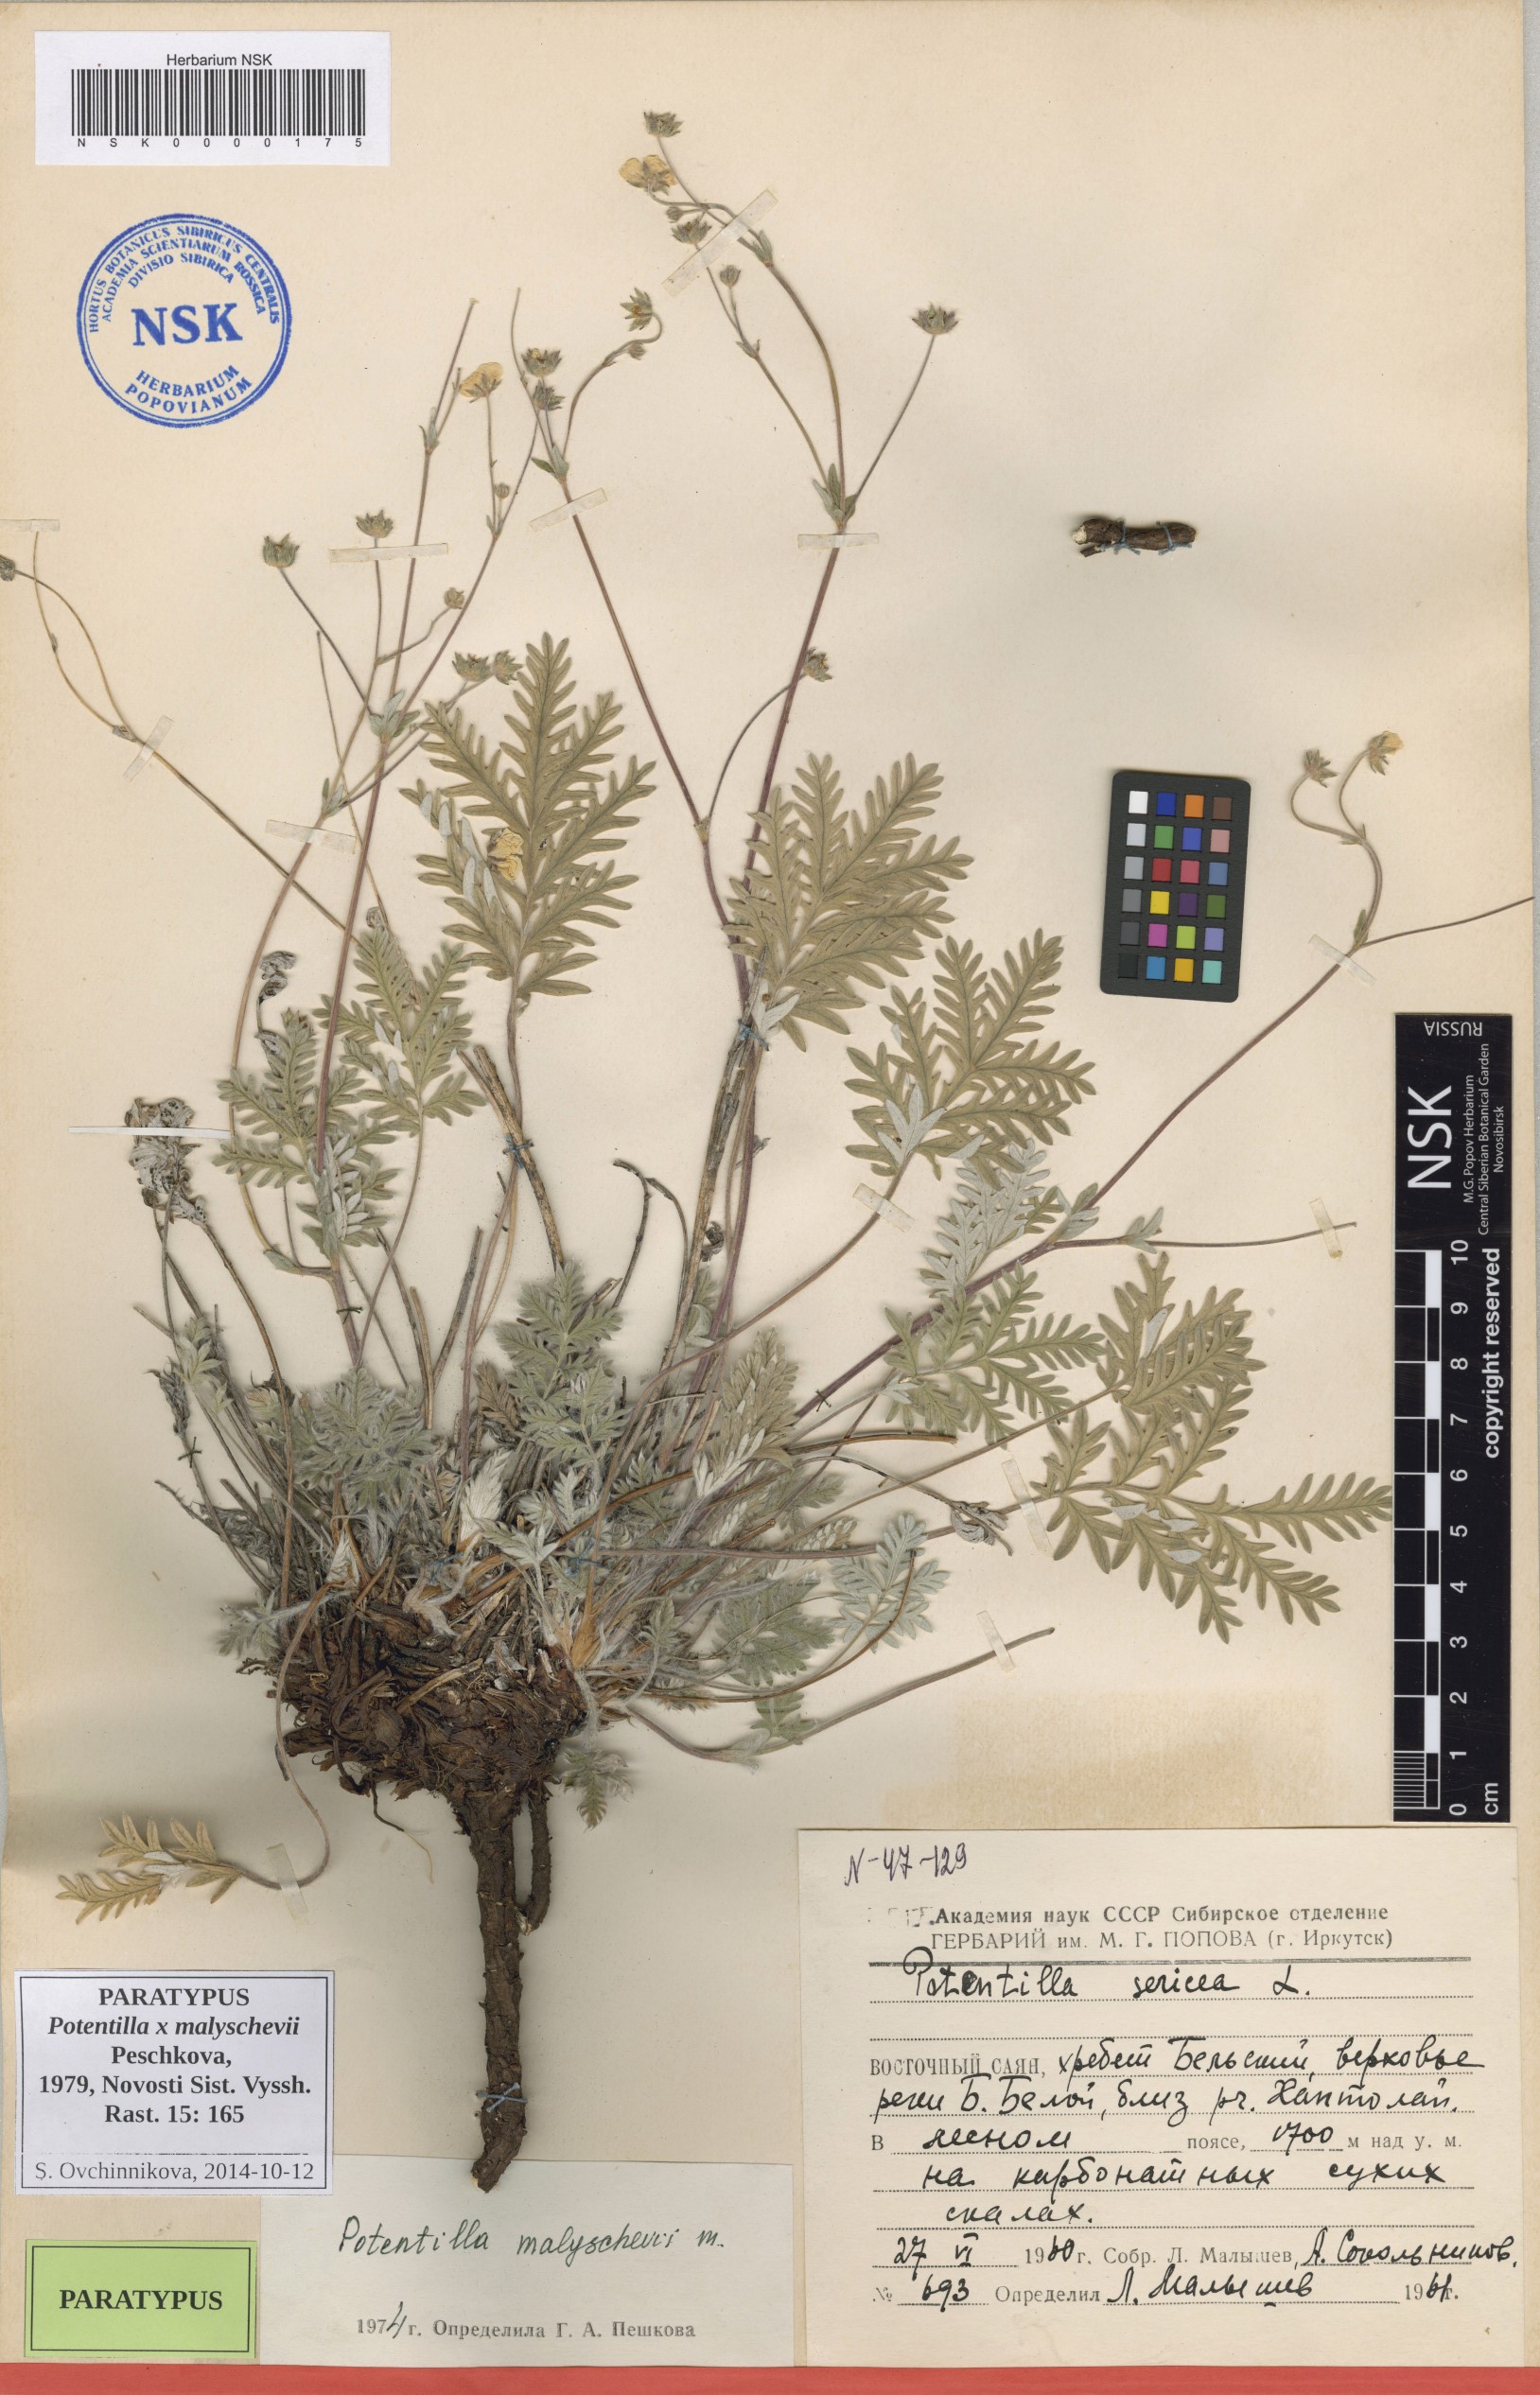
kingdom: Plantae
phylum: Tracheophyta
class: Magnoliopsida
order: Rosales
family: Rosaceae
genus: Potentilla
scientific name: Potentilla chionea
